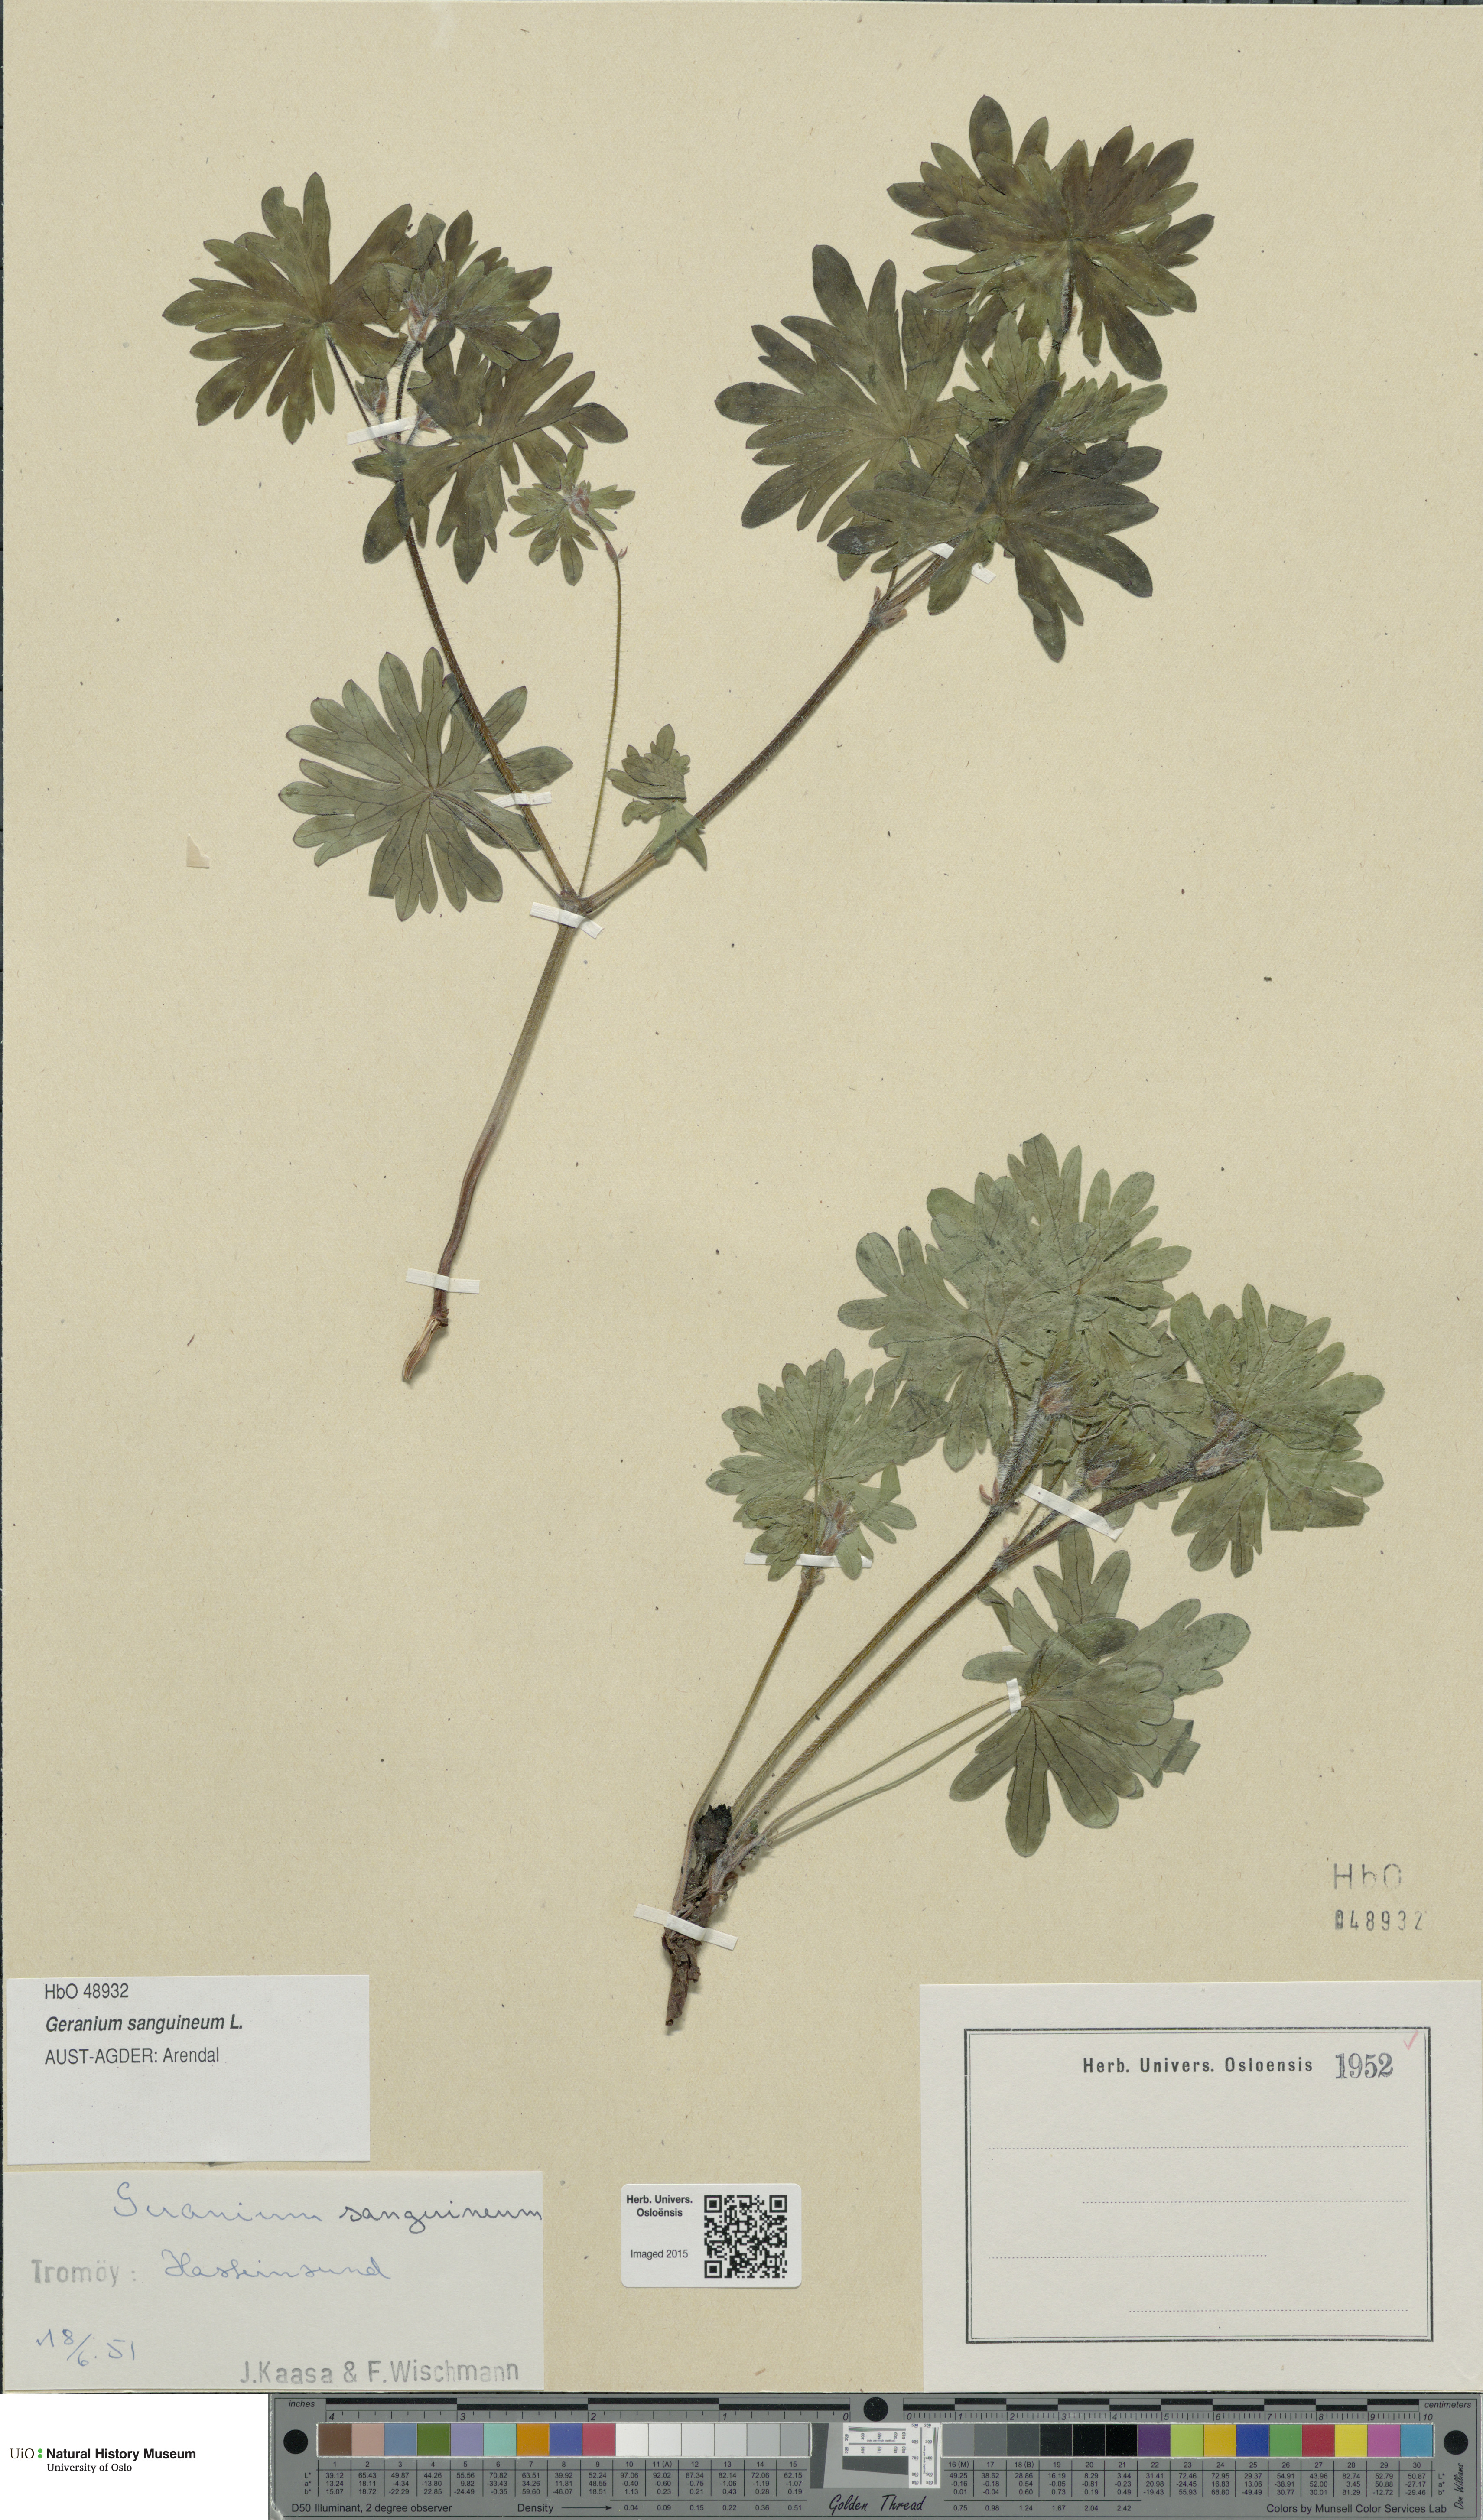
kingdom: Plantae
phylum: Tracheophyta
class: Magnoliopsida
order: Geraniales
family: Geraniaceae
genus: Geranium
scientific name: Geranium sanguineum
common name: Bloody crane's-bill
